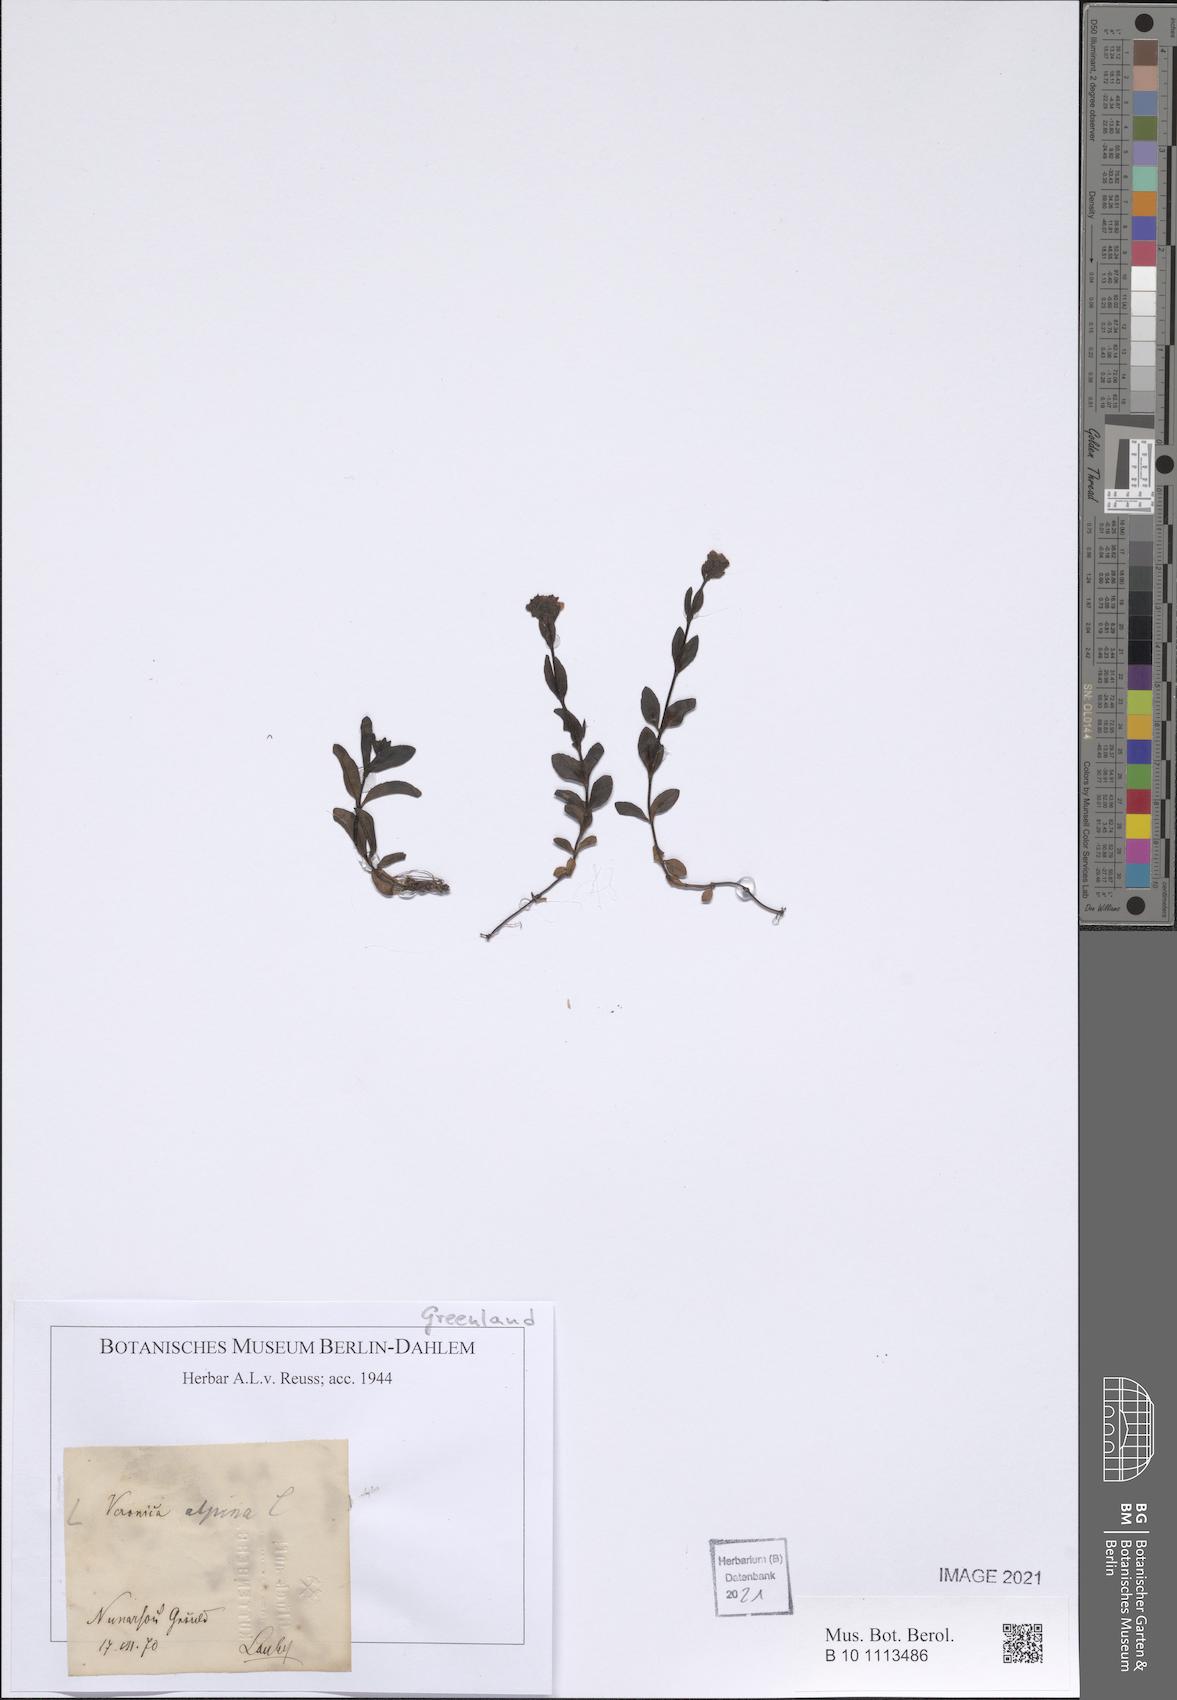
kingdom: Plantae
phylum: Tracheophyta
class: Magnoliopsida
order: Lamiales
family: Plantaginaceae
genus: Veronica
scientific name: Veronica alpina
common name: Alpine speedwell
